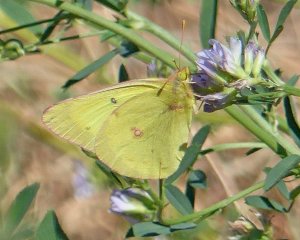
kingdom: Animalia
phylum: Arthropoda
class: Insecta
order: Lepidoptera
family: Pieridae
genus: Colias
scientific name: Colias philodice
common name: Clouded Sulphur
